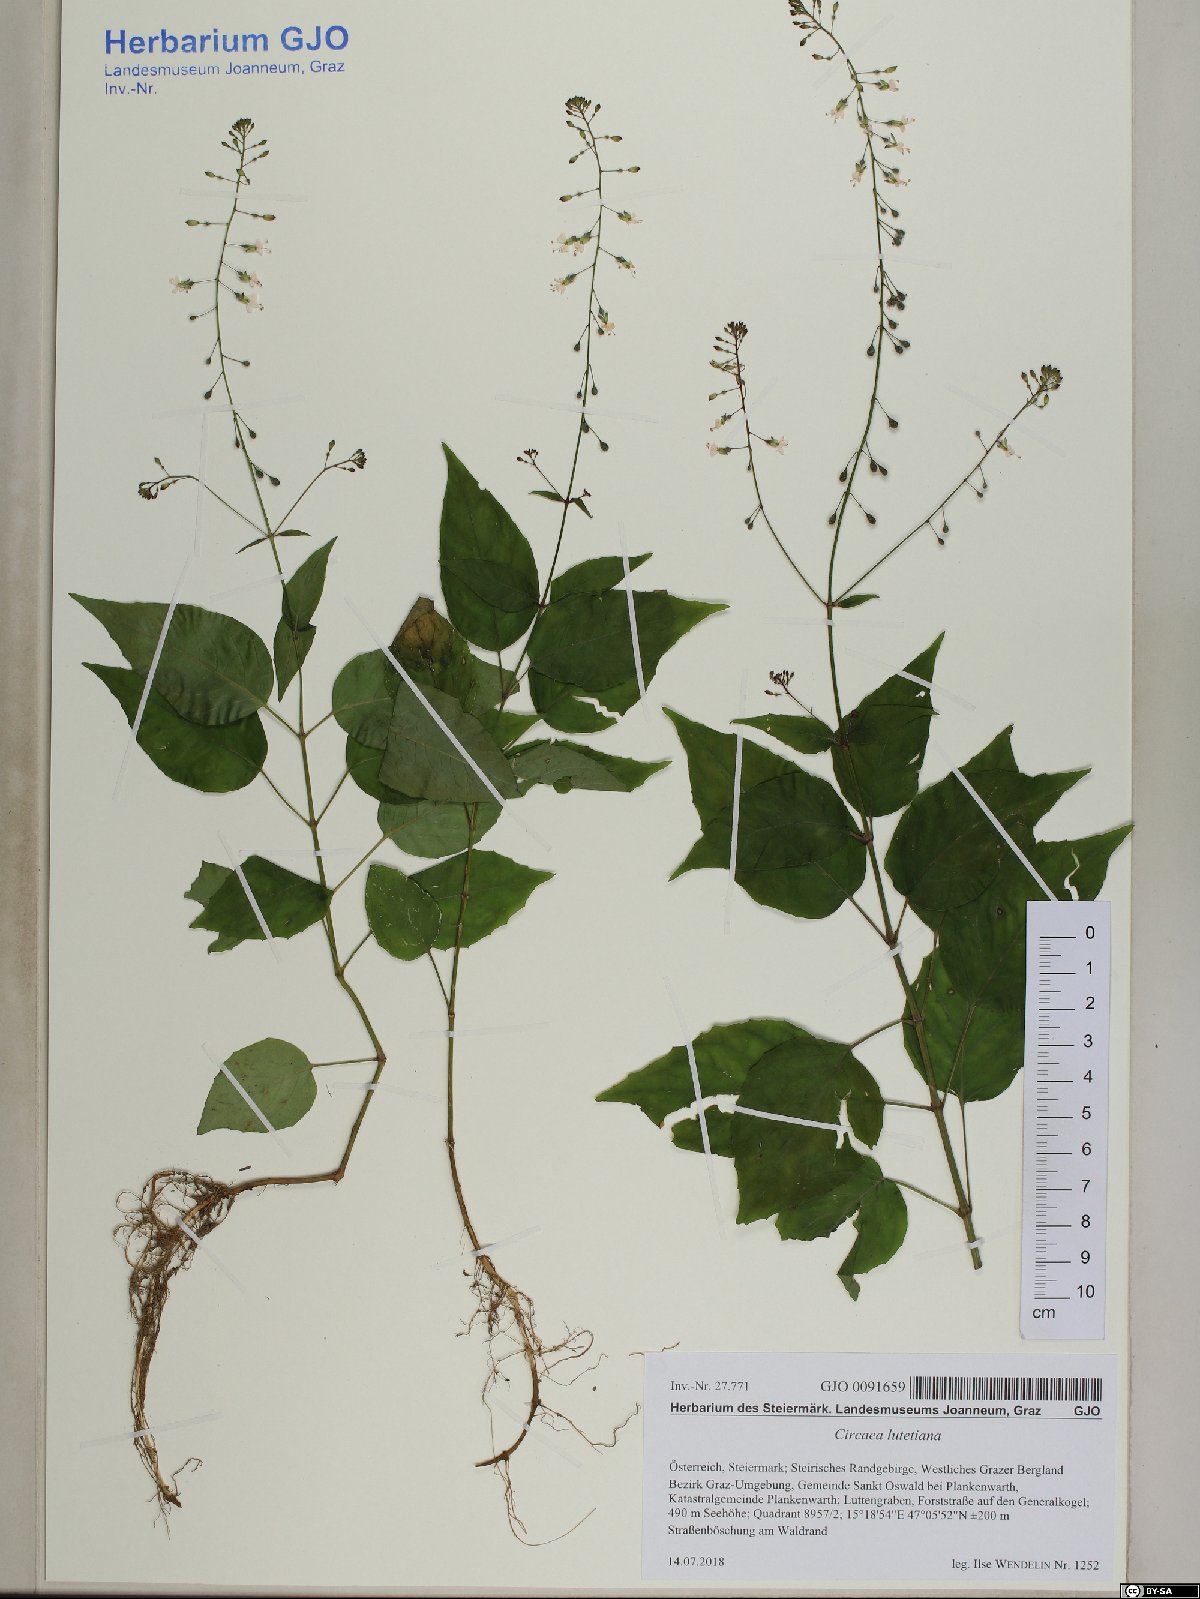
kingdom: Plantae
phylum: Tracheophyta
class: Magnoliopsida
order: Myrtales
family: Onagraceae
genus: Circaea
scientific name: Circaea lutetiana
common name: Enchanter's-nightshade
